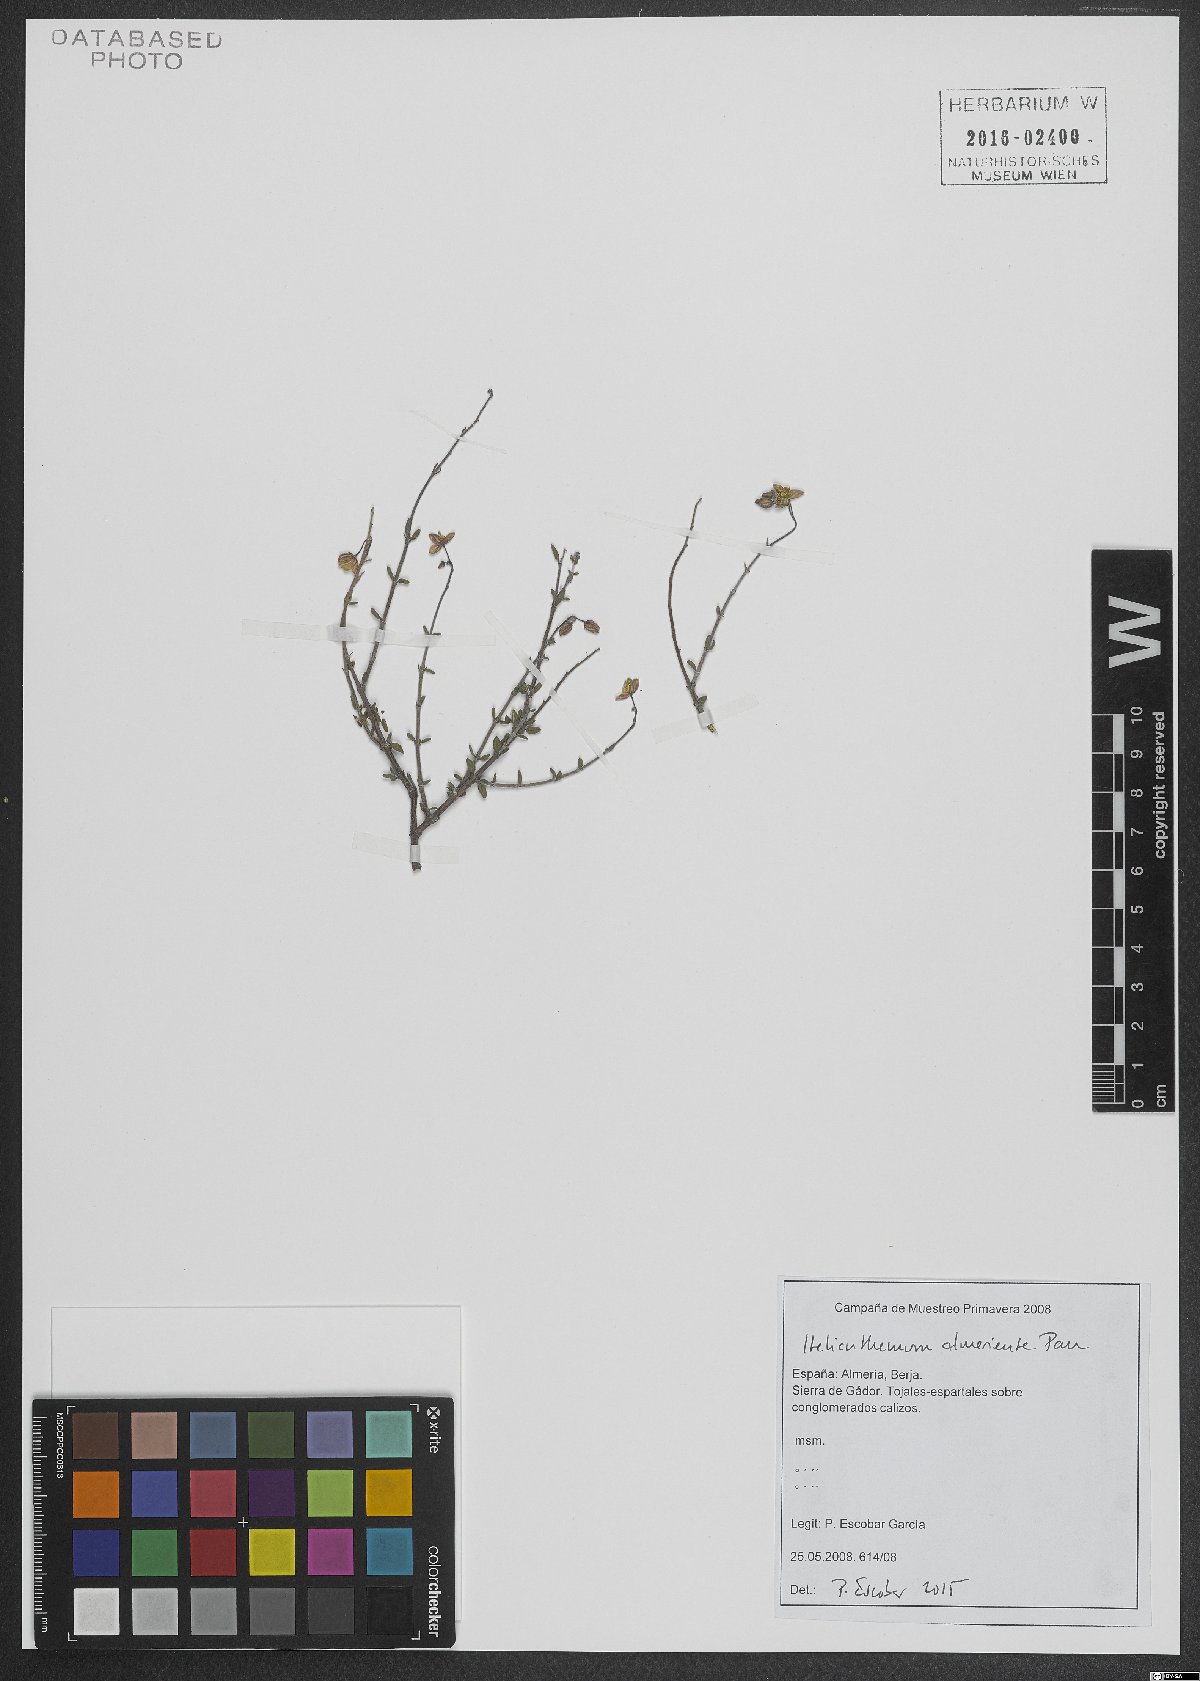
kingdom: Plantae
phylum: Tracheophyta
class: Magnoliopsida
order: Malvales
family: Cistaceae
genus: Helianthemum
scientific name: Helianthemum almeriense
